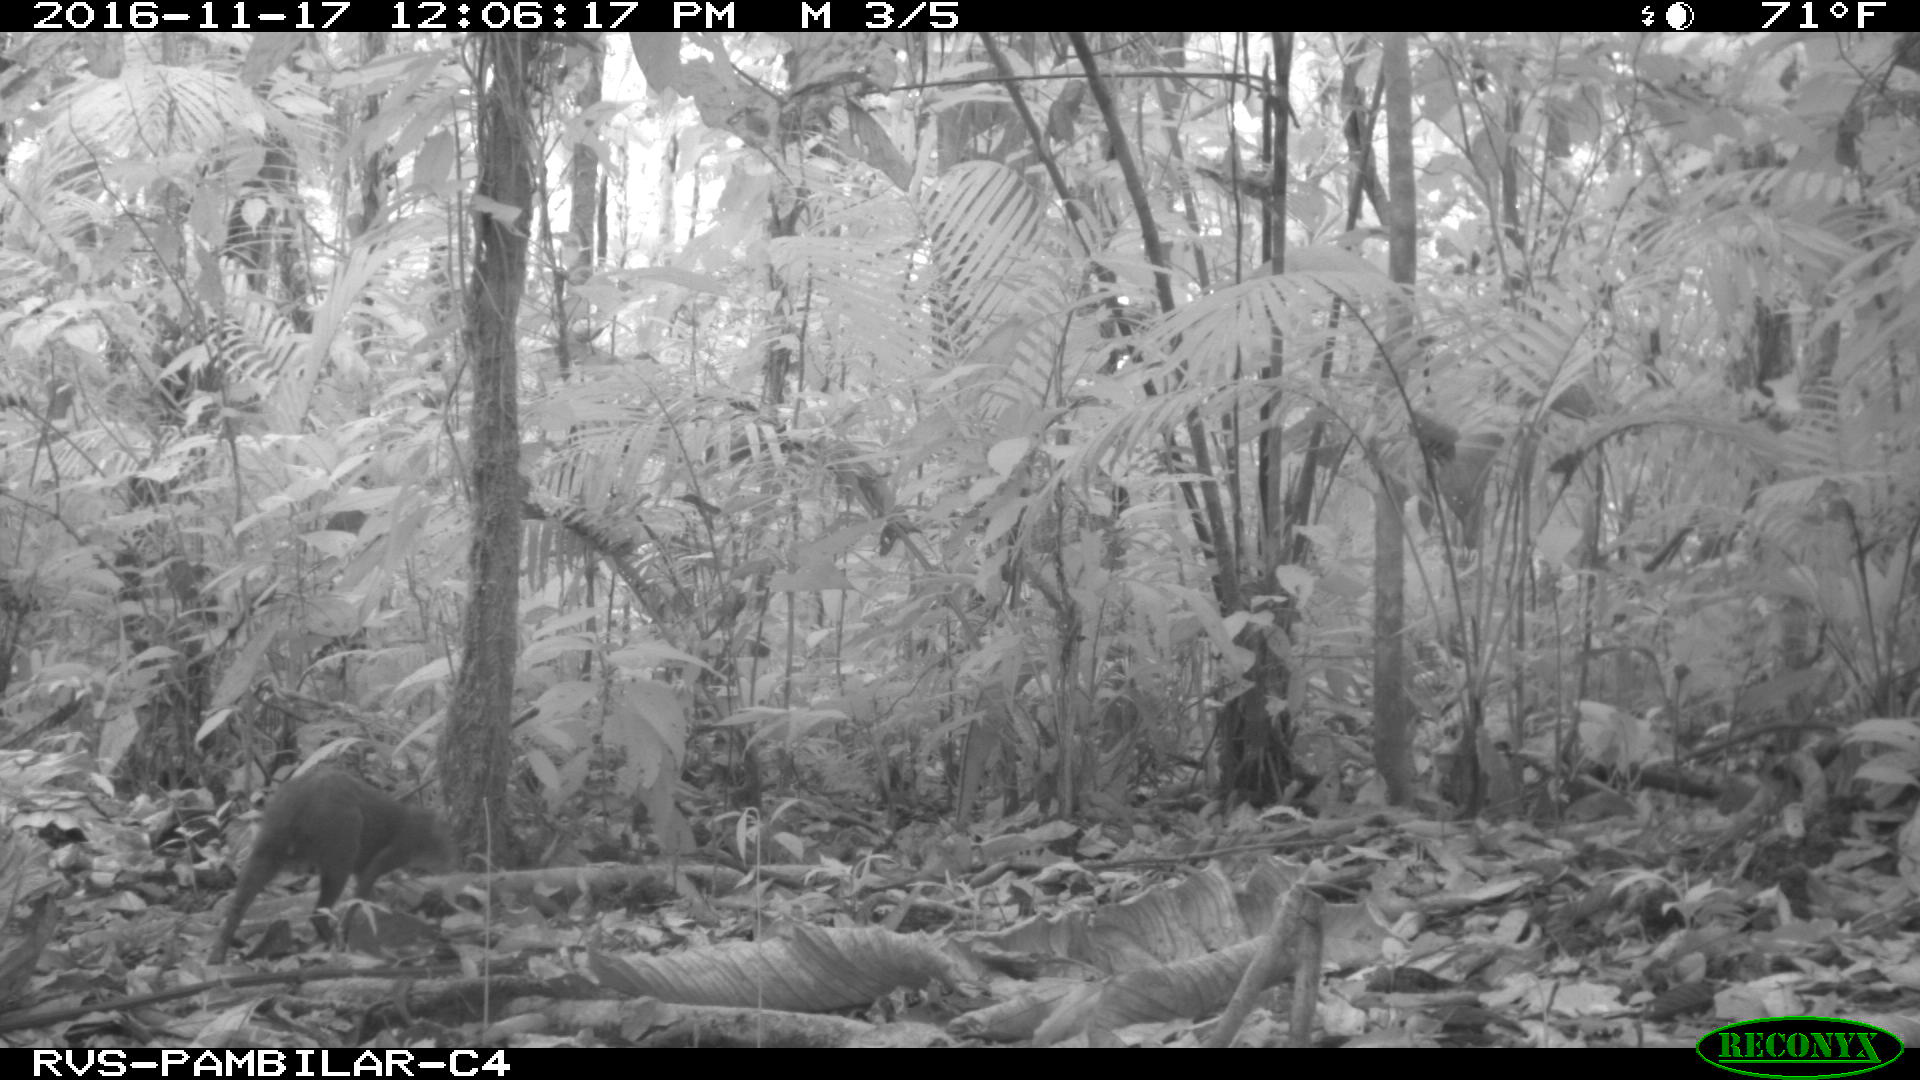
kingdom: Animalia
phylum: Chordata
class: Mammalia
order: Rodentia
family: Dasyproctidae
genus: Dasyprocta
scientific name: Dasyprocta punctata
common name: Central american agouti
